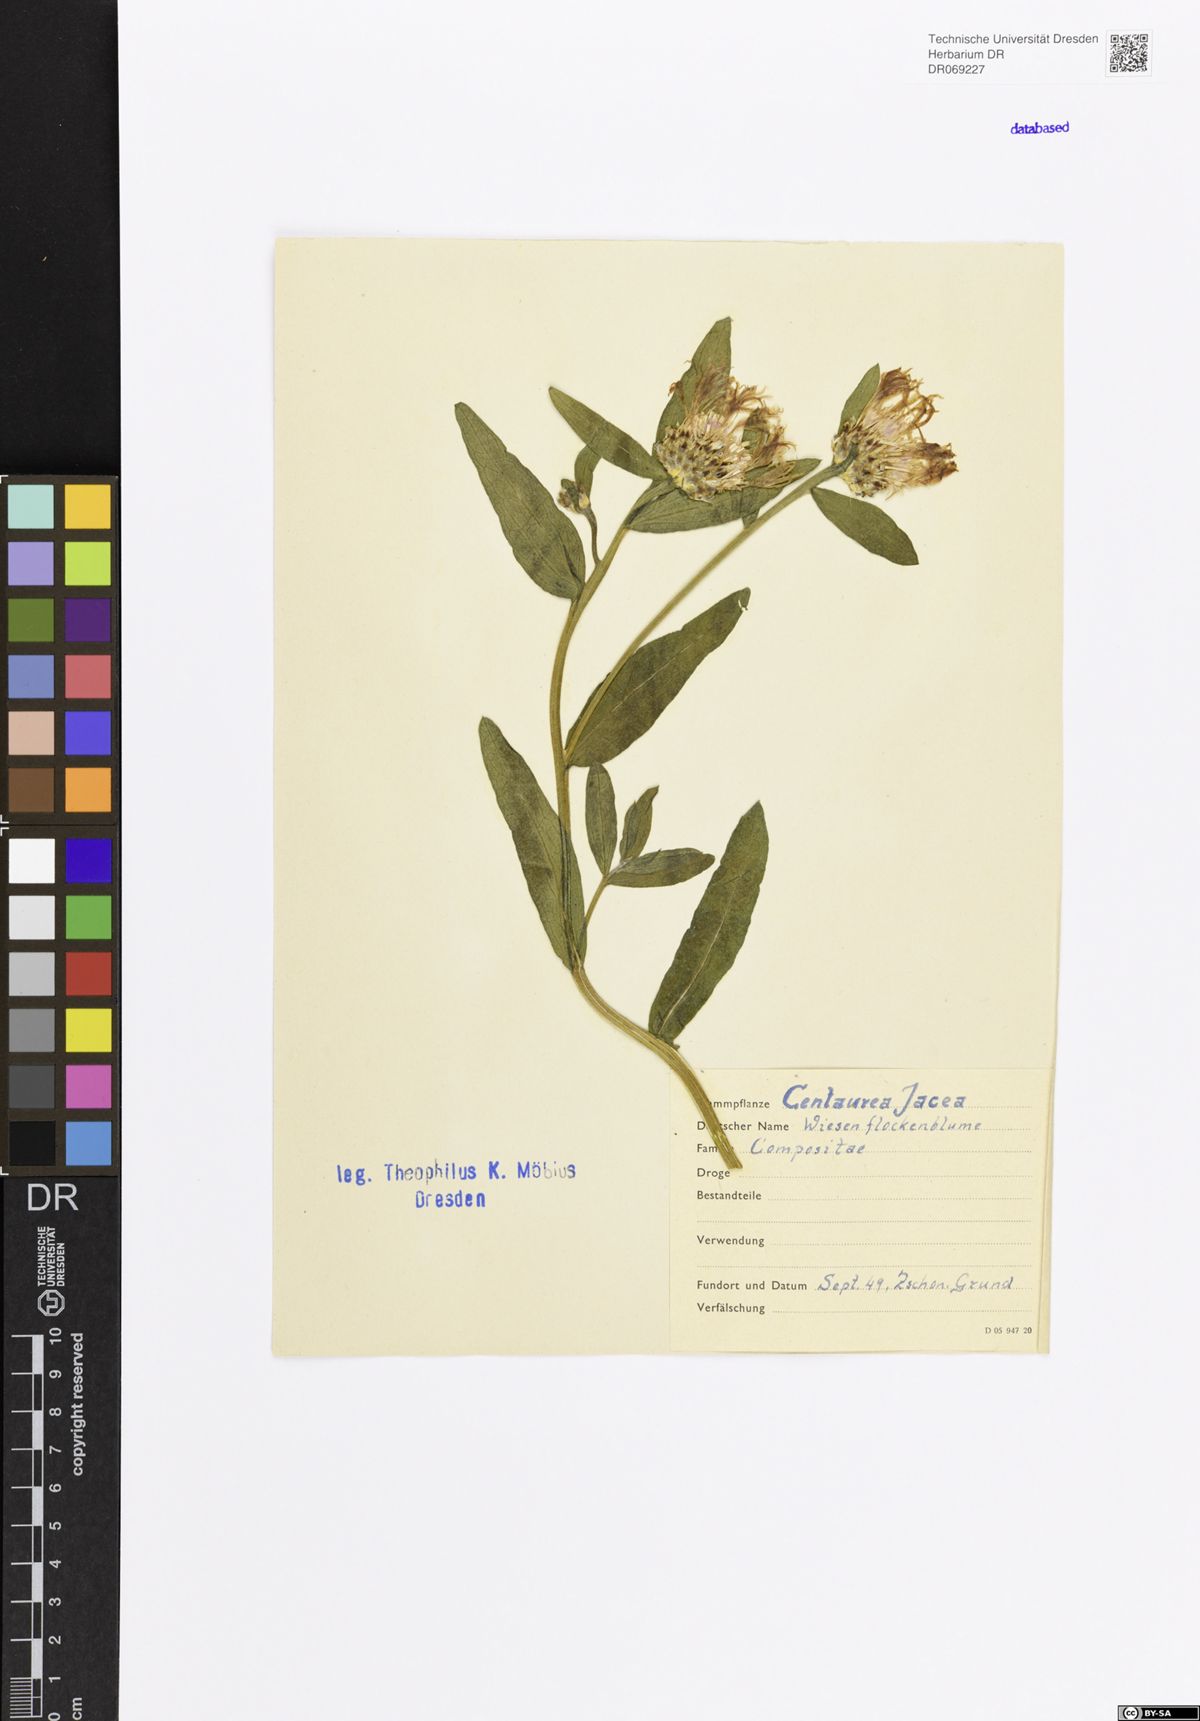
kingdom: Plantae
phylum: Tracheophyta
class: Magnoliopsida
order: Asterales
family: Asteraceae
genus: Centaurea
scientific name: Centaurea jacea
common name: Brown knapweed
